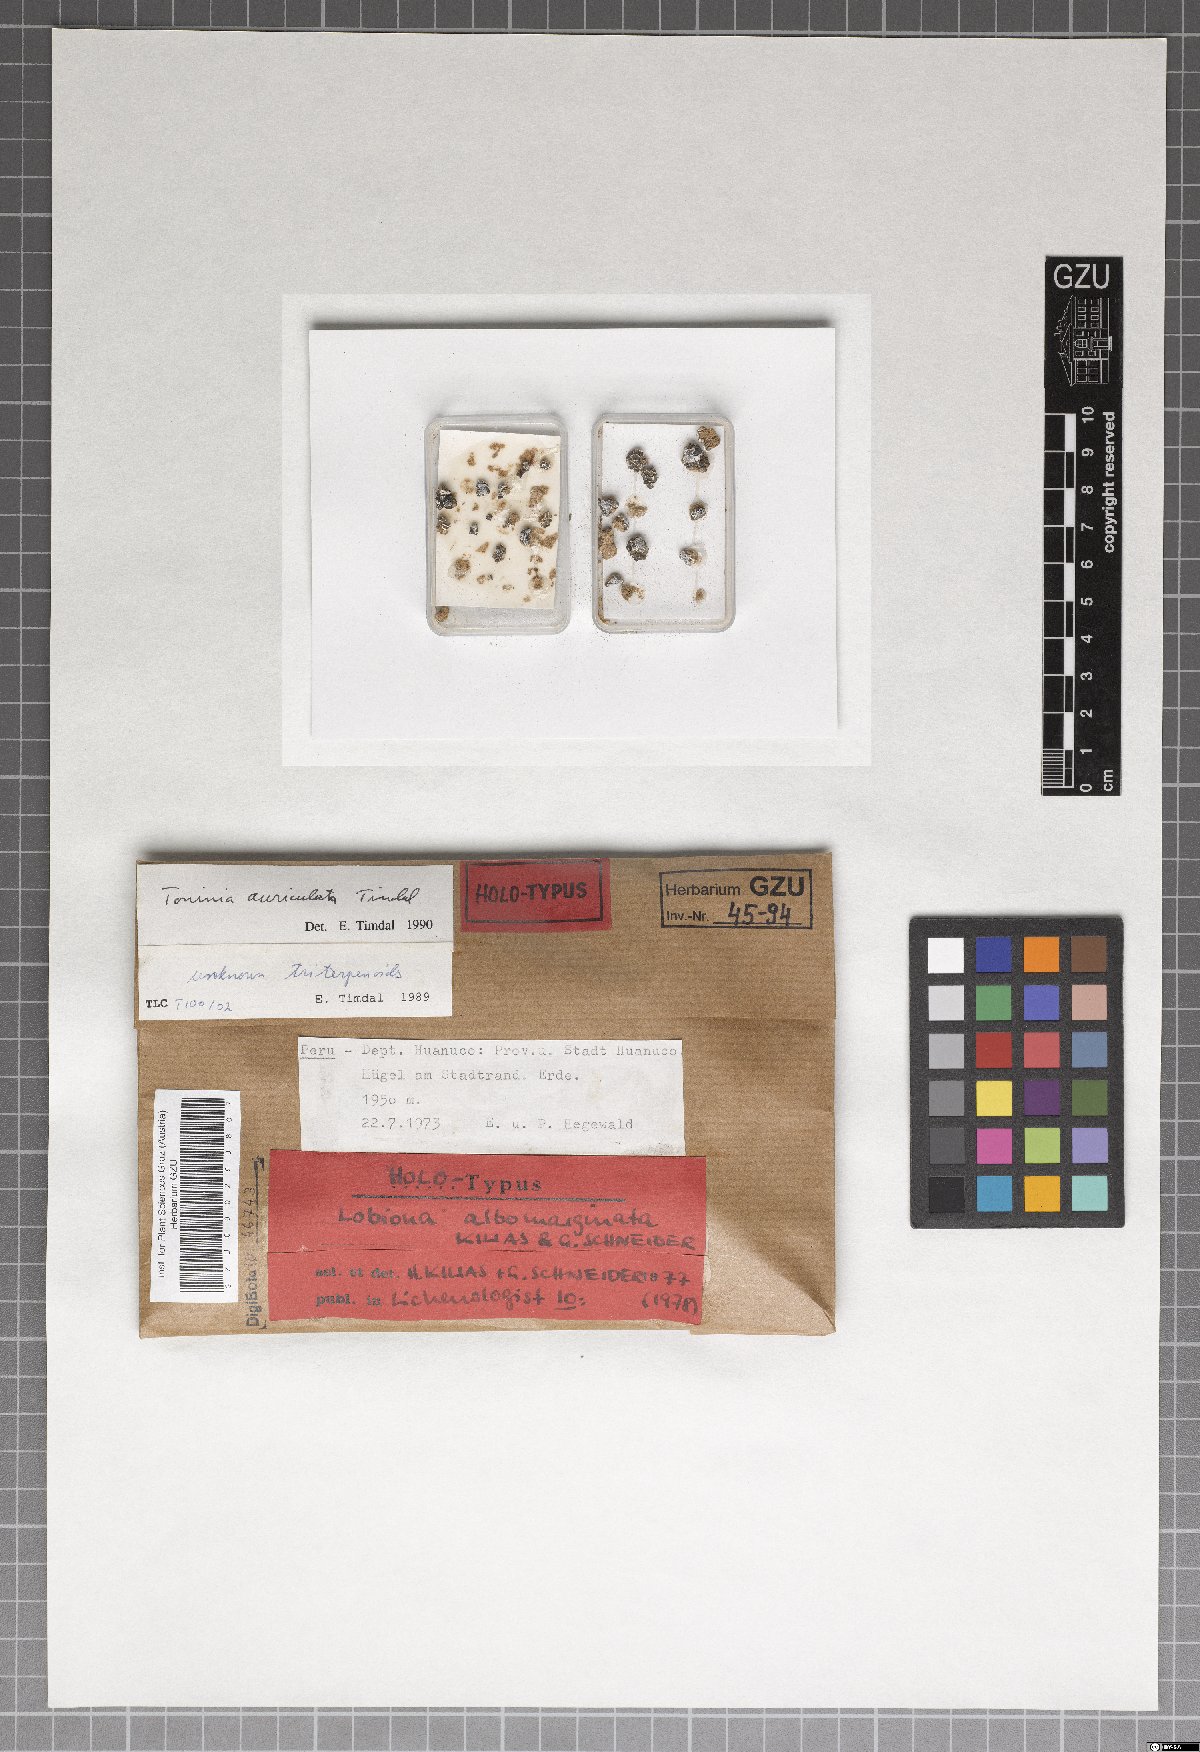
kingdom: Fungi
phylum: Ascomycota
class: Lecanoromycetes
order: Lecanorales
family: Ramalinaceae
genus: Bibbya
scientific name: Bibbya albomarginata
